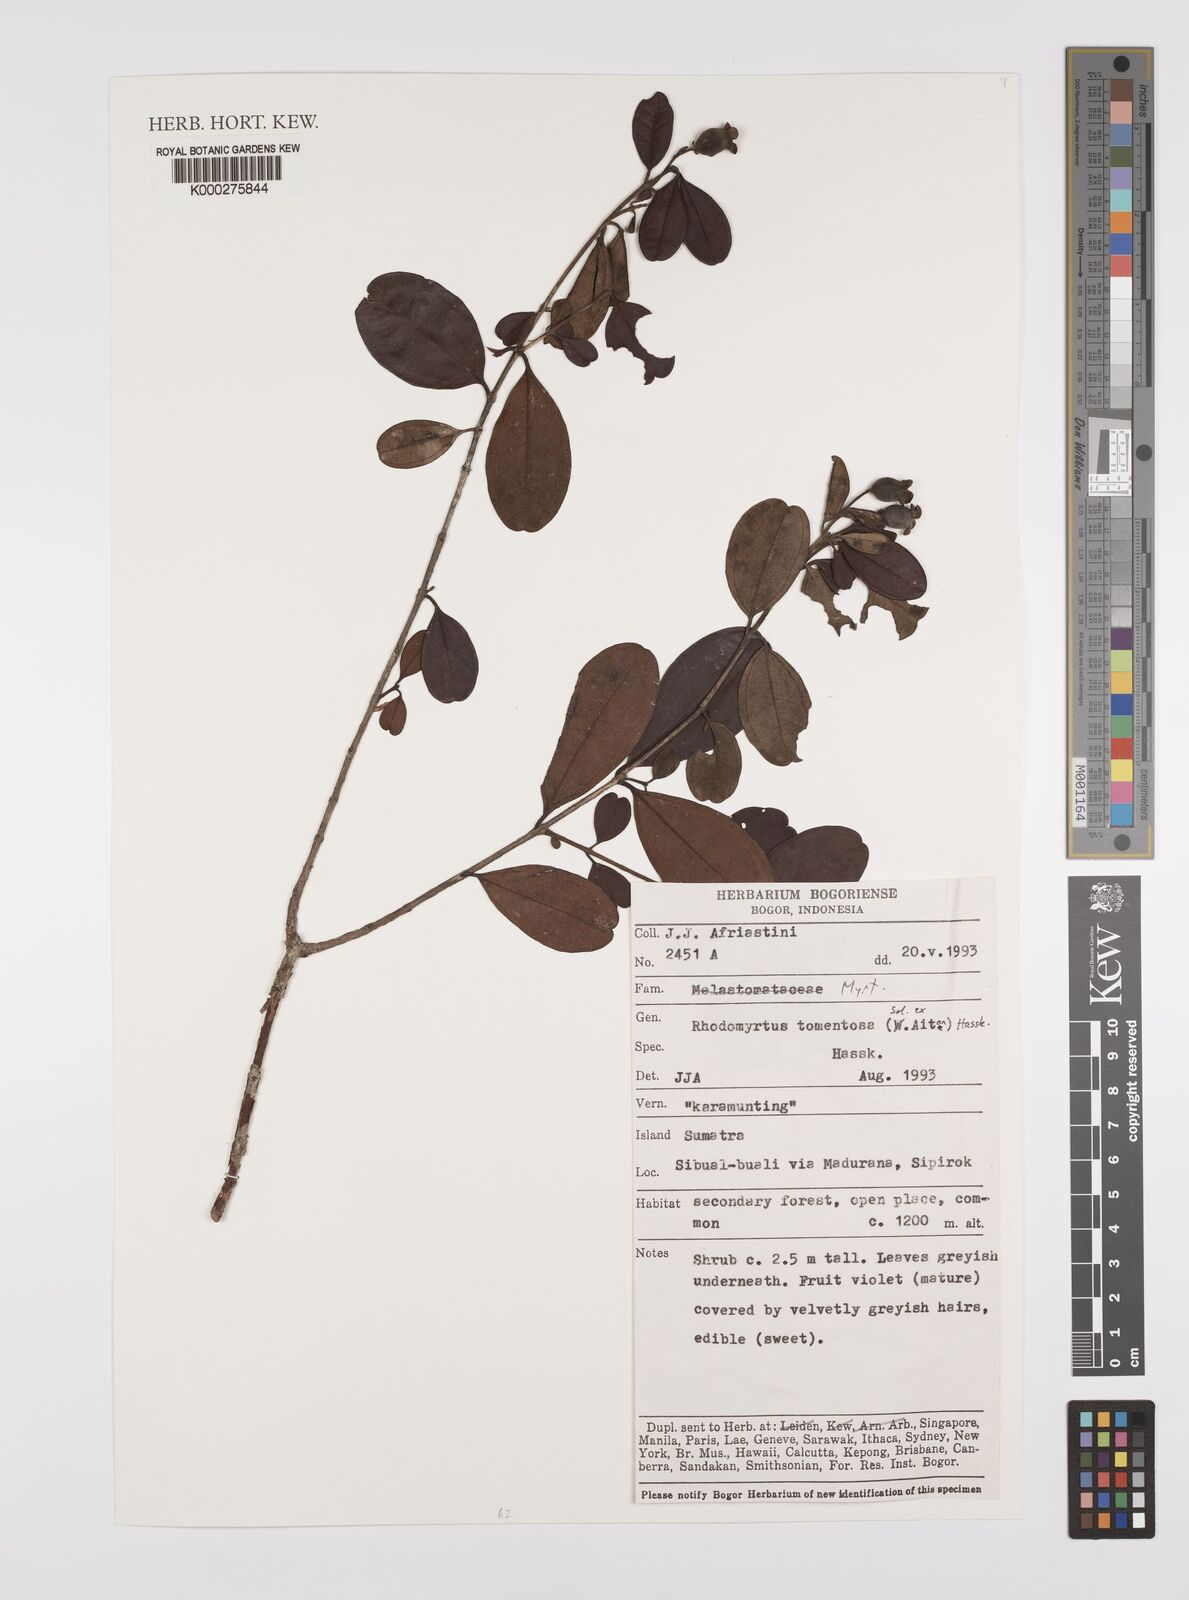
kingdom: Plantae
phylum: Tracheophyta
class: Magnoliopsida
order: Myrtales
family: Myrtaceae
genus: Rhodomyrtus
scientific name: Rhodomyrtus tomentosa
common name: Rose myrtle
